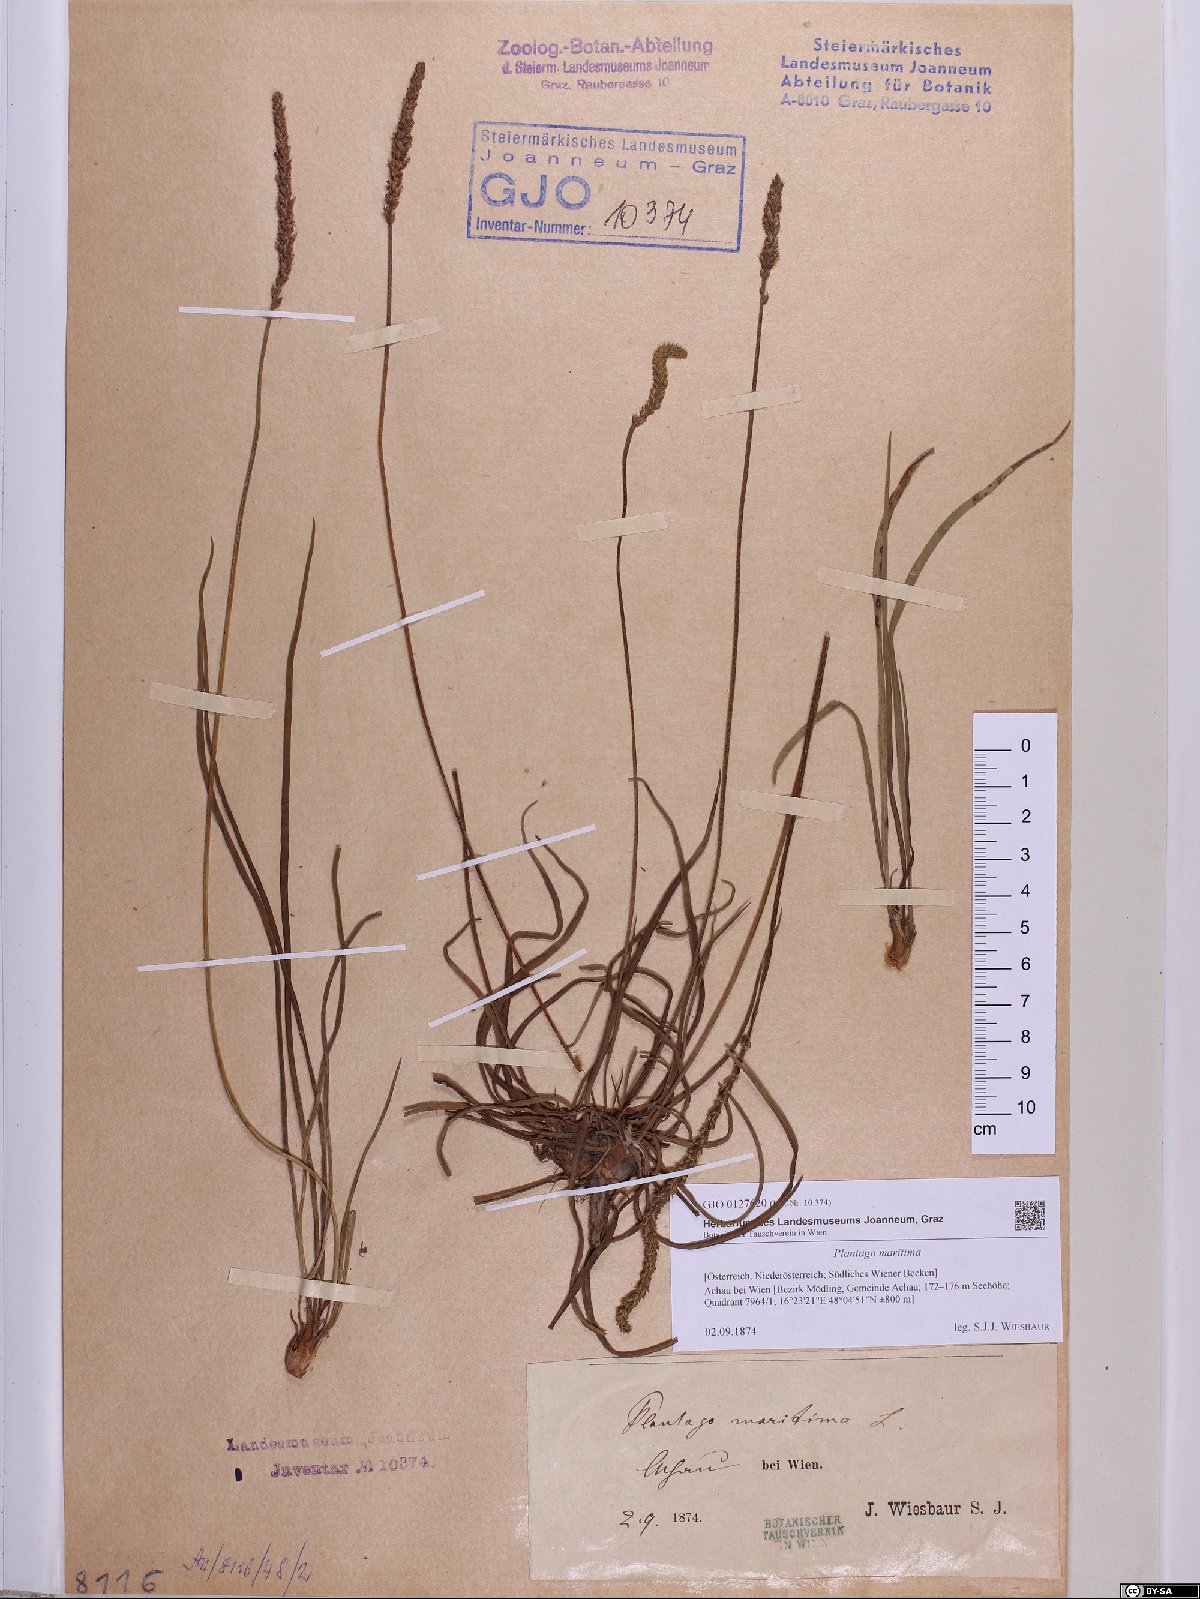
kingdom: Plantae
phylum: Tracheophyta
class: Magnoliopsida
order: Lamiales
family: Plantaginaceae
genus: Plantago
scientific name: Plantago maritima
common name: Sea plantain
